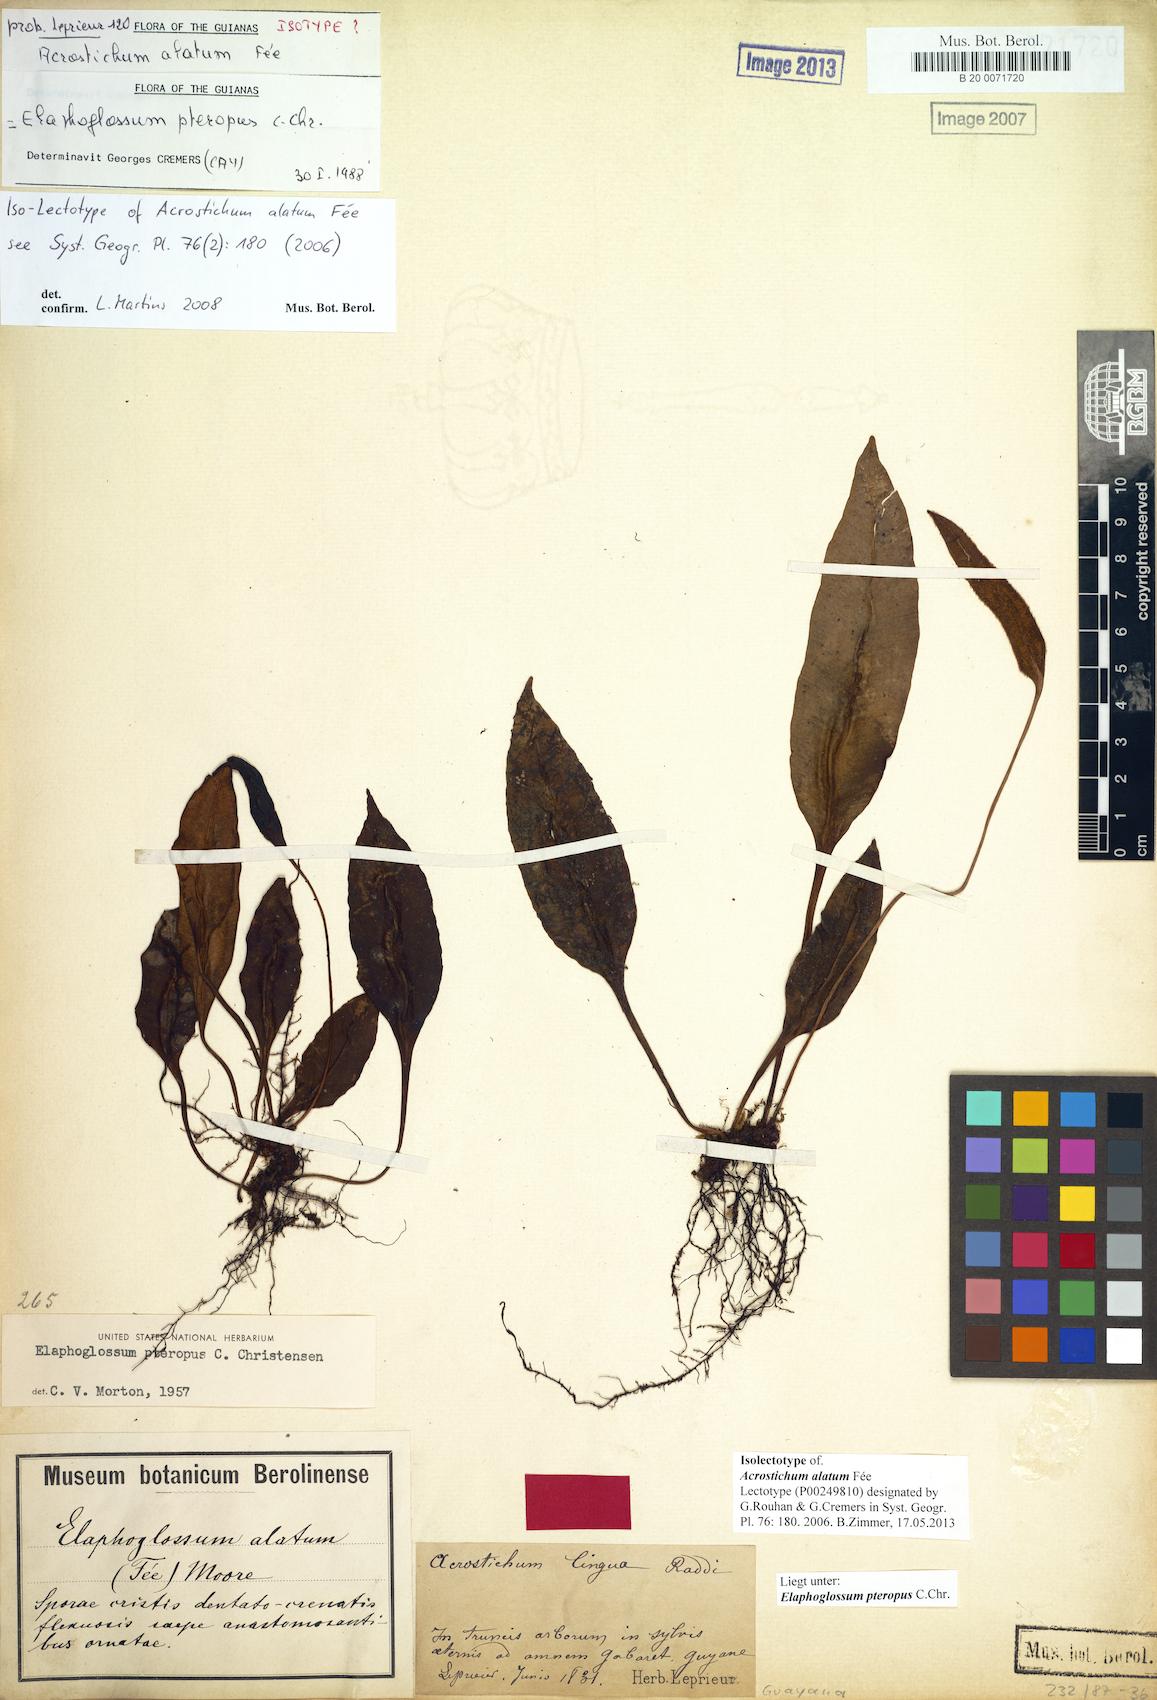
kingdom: Plantae
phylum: Tracheophyta
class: Polypodiopsida
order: Polypodiales
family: Dryopteridaceae
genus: Elaphoglossum
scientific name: Elaphoglossum pteropus
